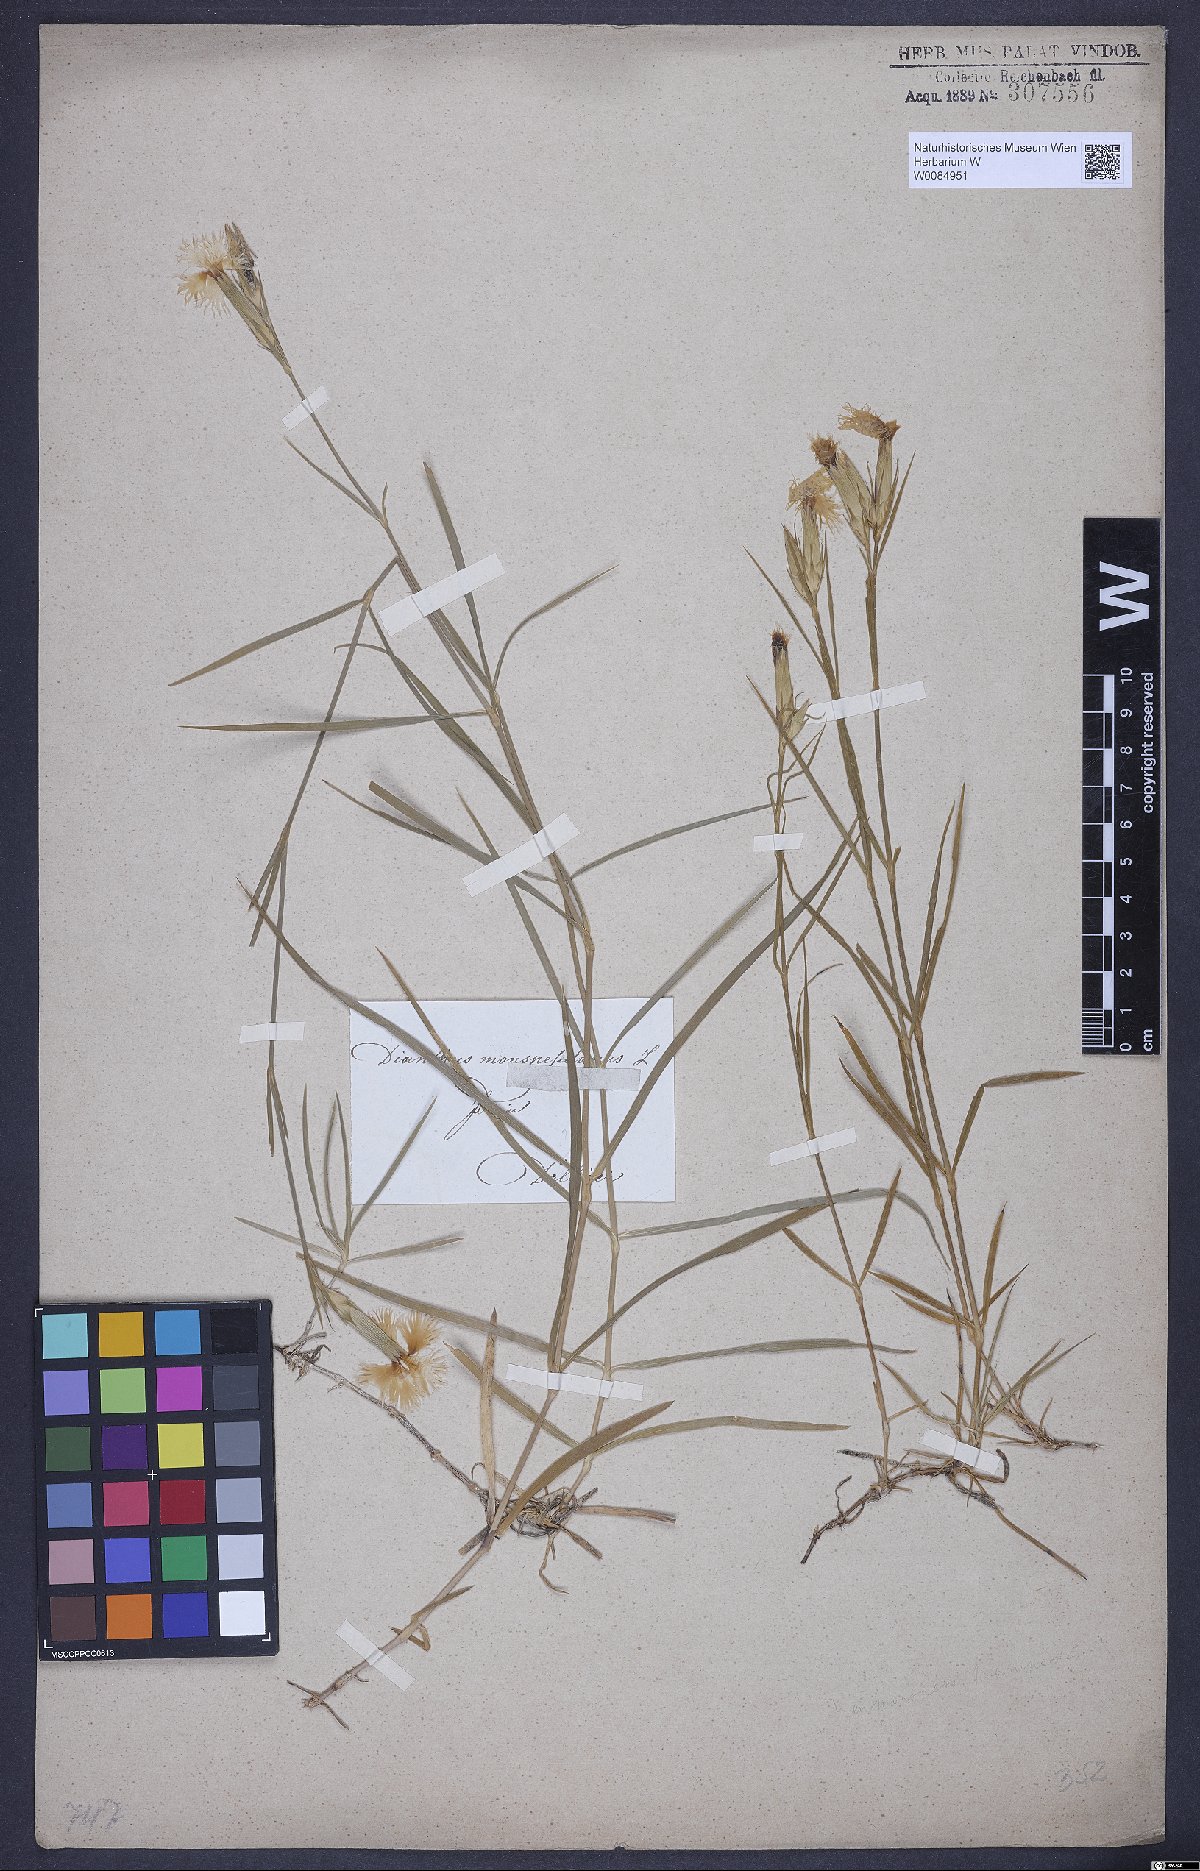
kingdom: Plantae
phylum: Tracheophyta
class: Magnoliopsida
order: Caryophyllales
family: Caryophyllaceae
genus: Dianthus
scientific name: Dianthus hyssopifolius
